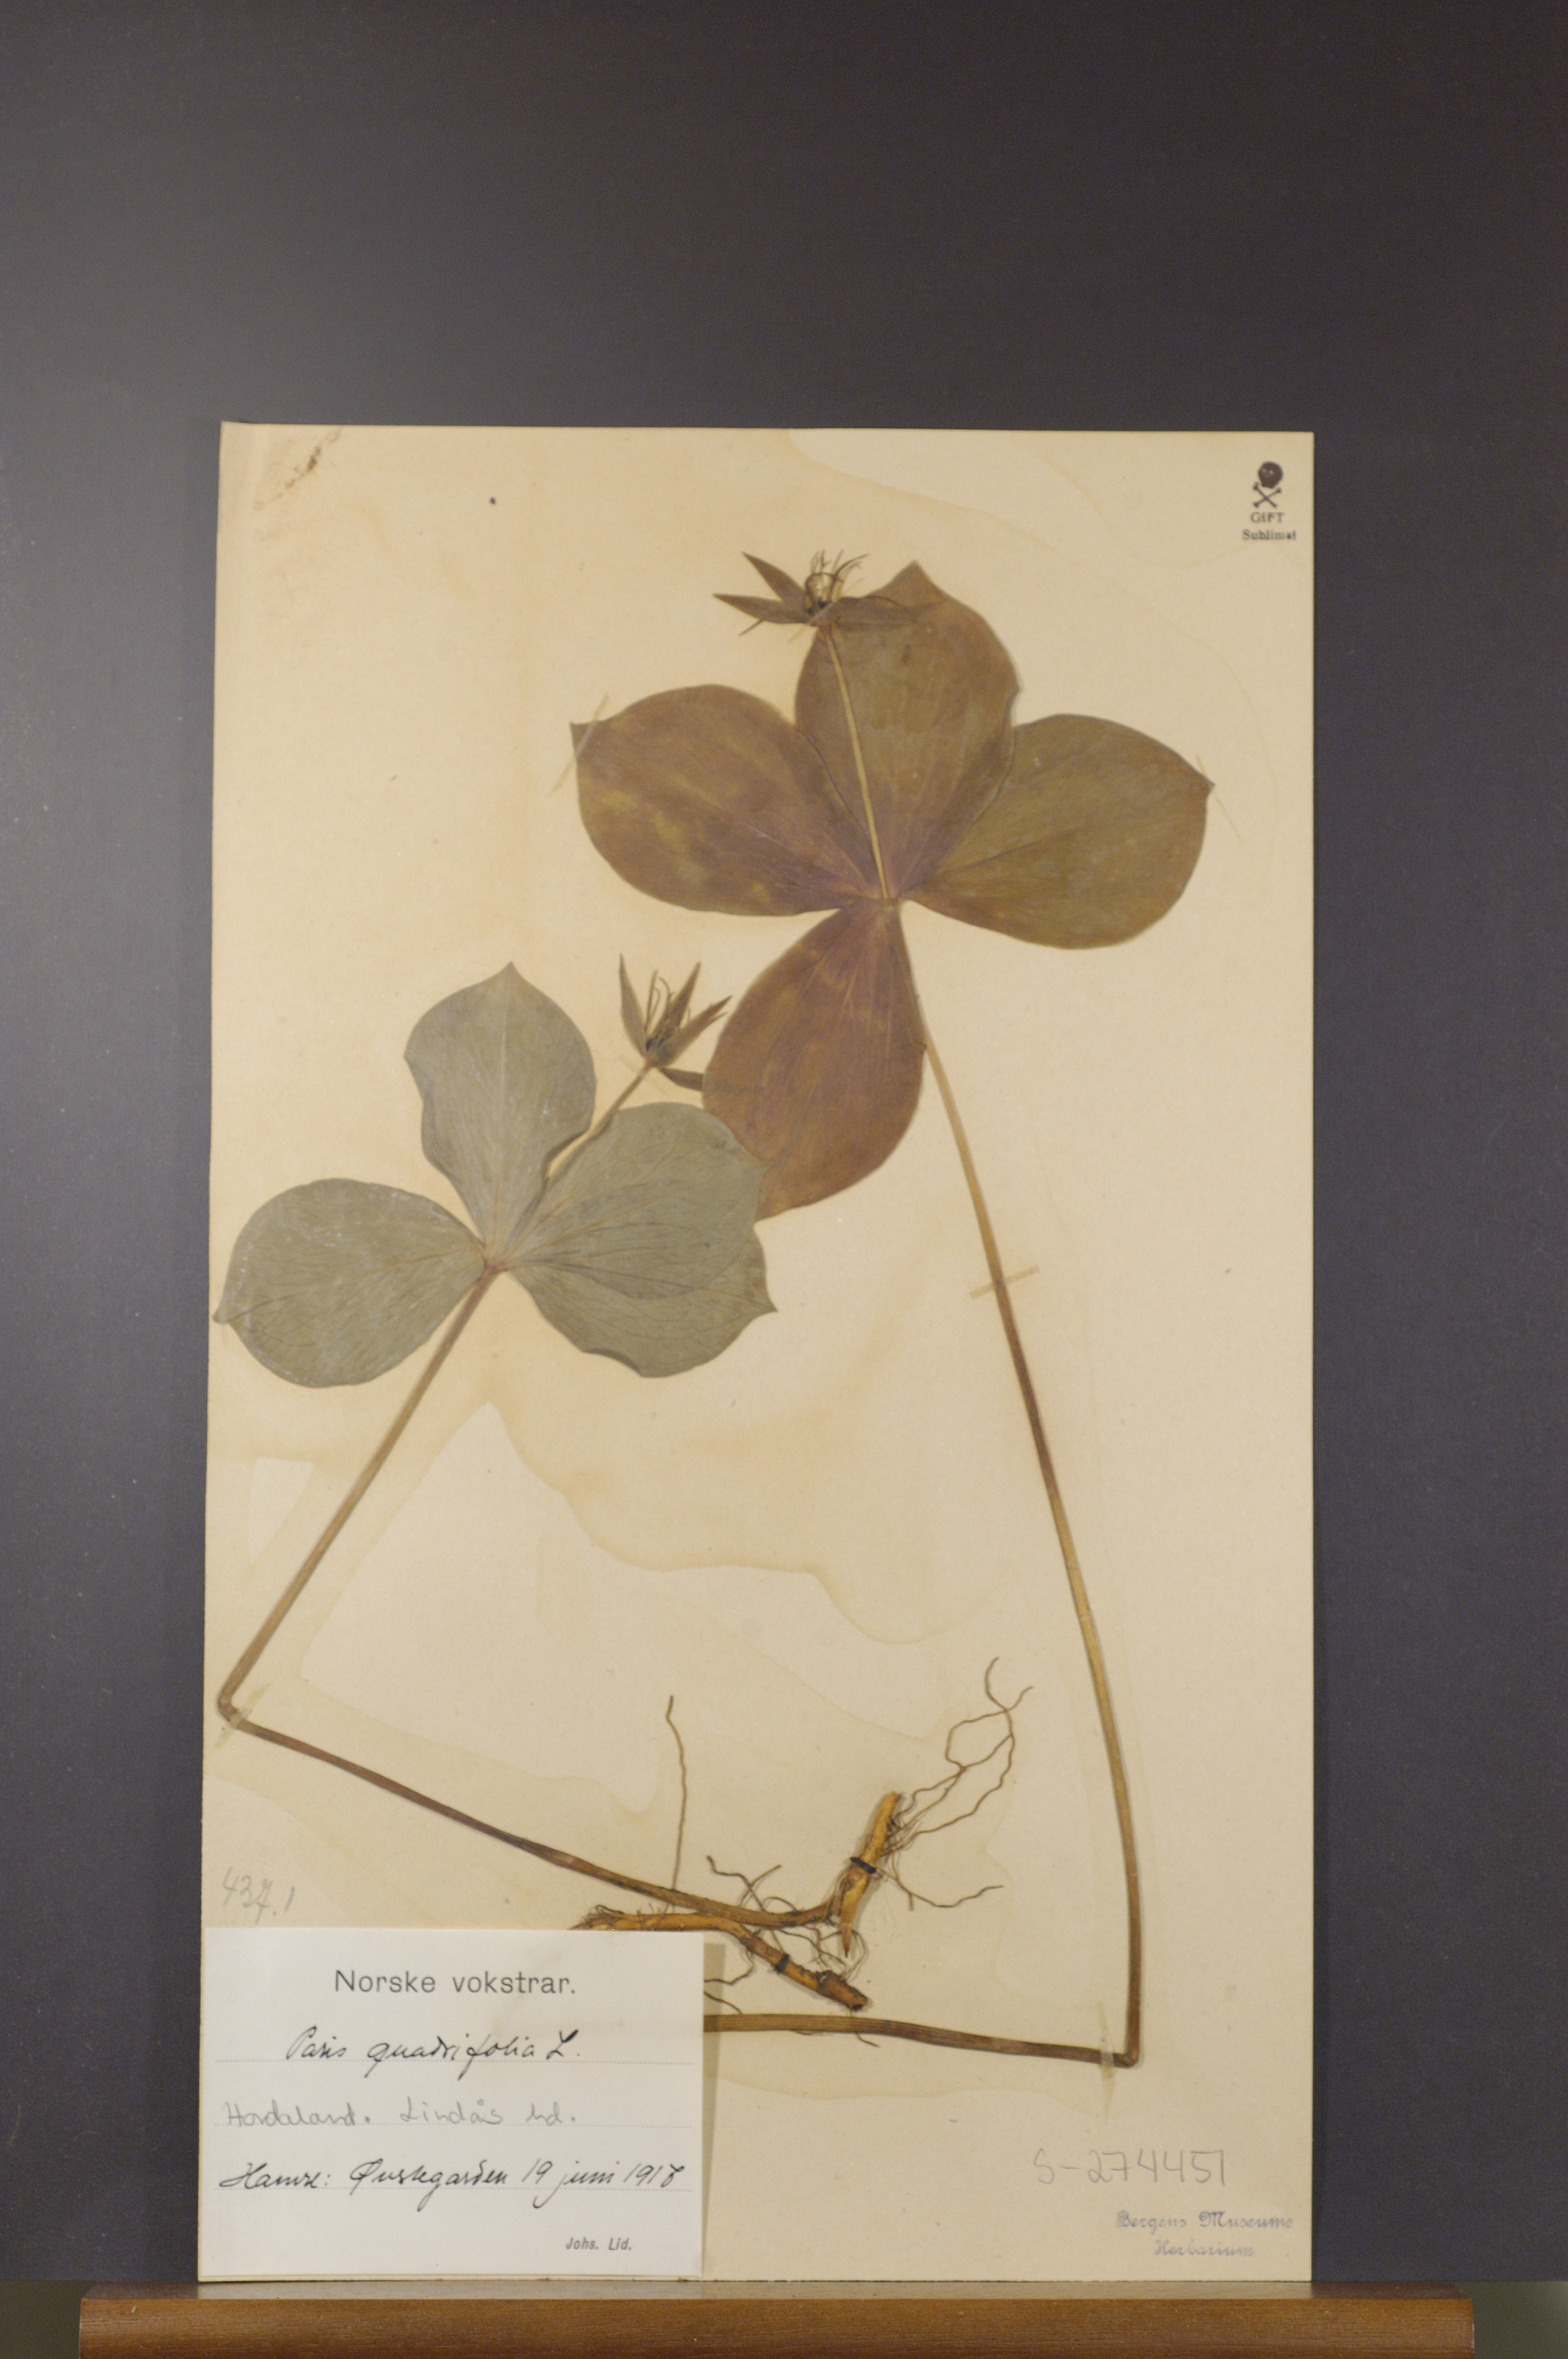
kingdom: Plantae
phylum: Tracheophyta
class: Liliopsida
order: Liliales
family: Melanthiaceae
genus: Paris
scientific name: Paris quadrifolia
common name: Herb-paris
